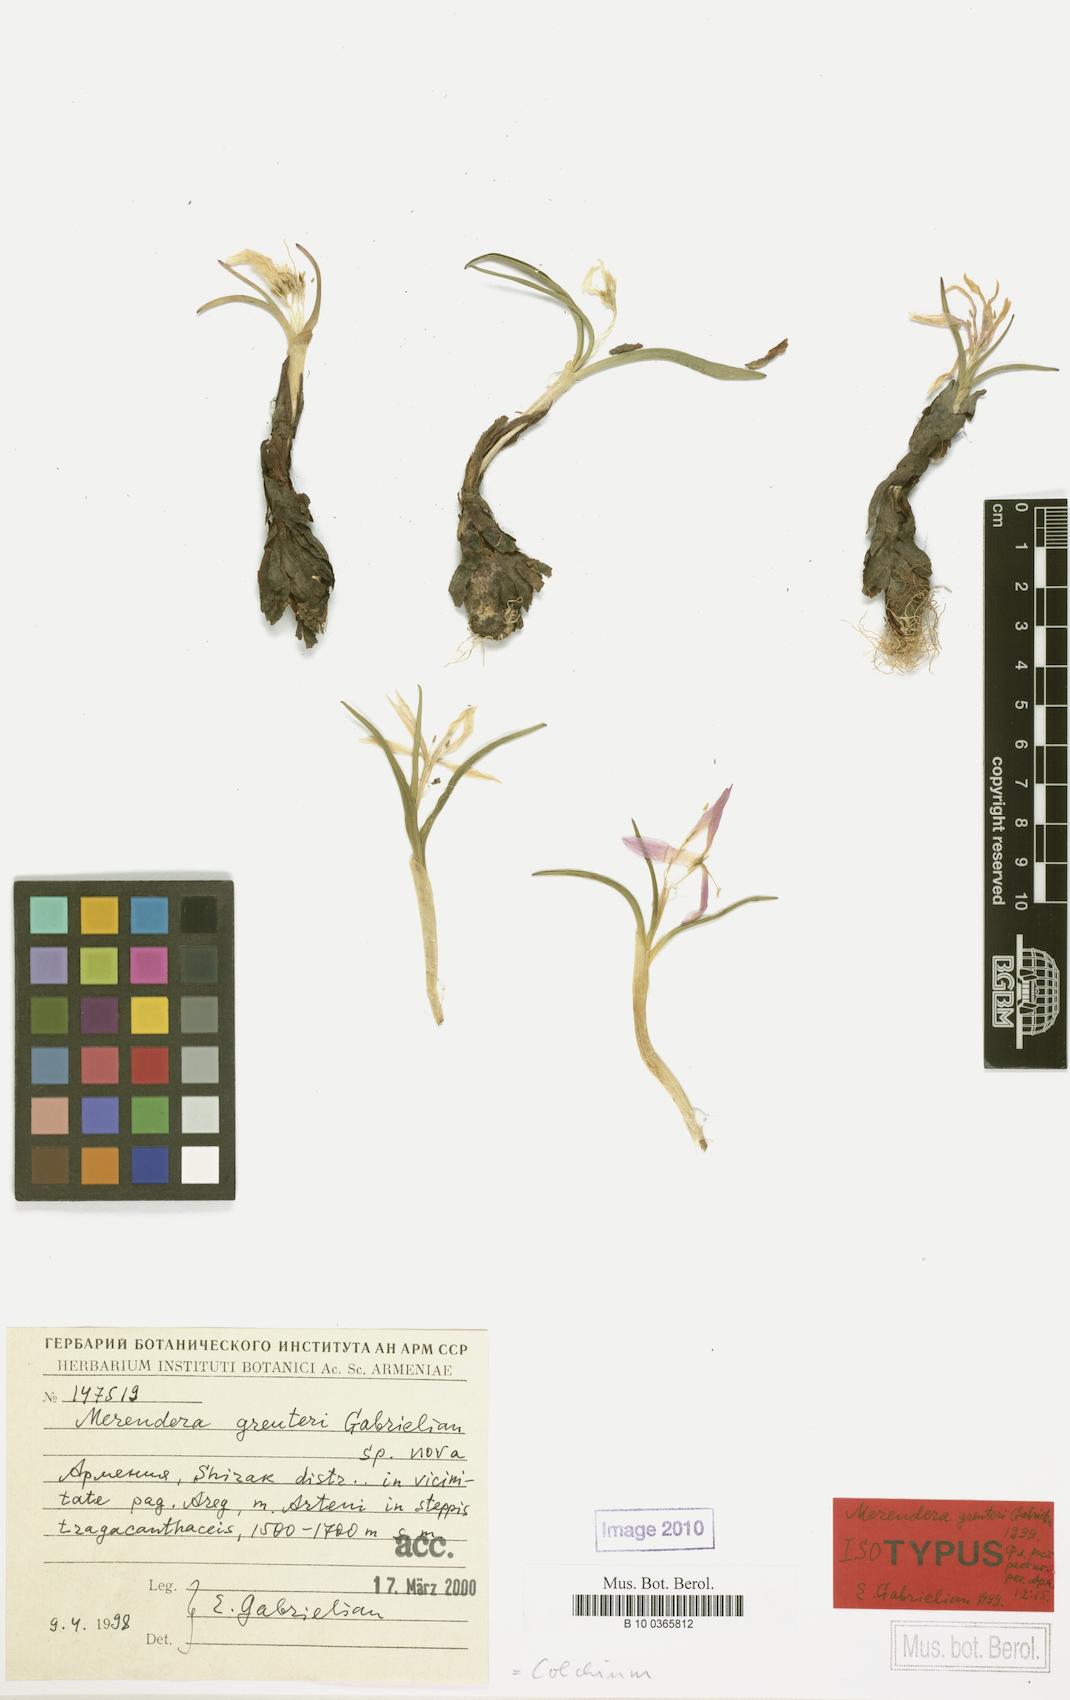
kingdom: Plantae
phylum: Tracheophyta
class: Liliopsida
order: Liliales
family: Colchicaceae
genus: Colchicum
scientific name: Colchicum trigynum
